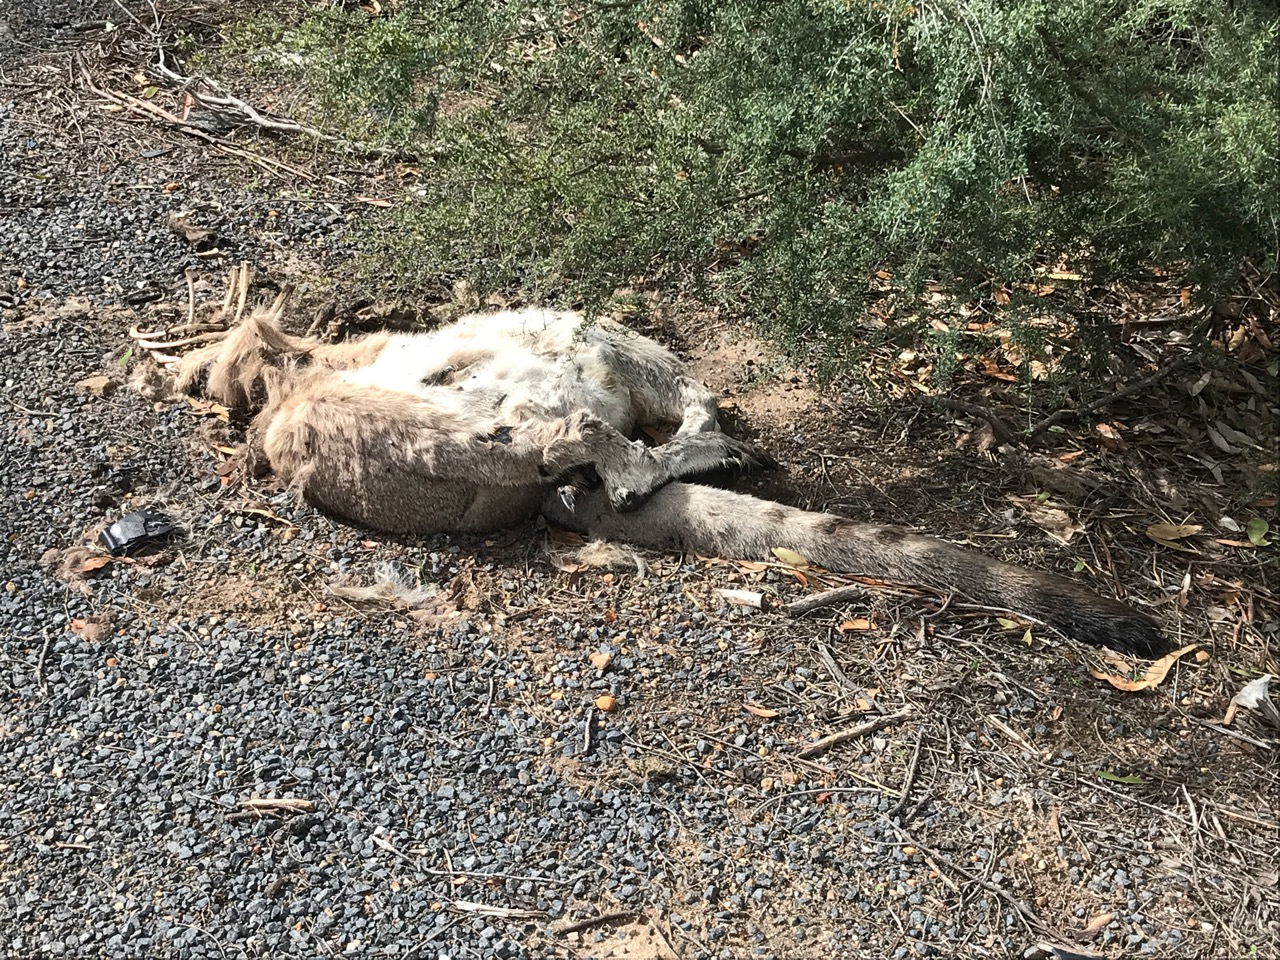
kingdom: Animalia
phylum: Chordata
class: Mammalia
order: Diprotodontia
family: Macropodidae
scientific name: Macropodidae
